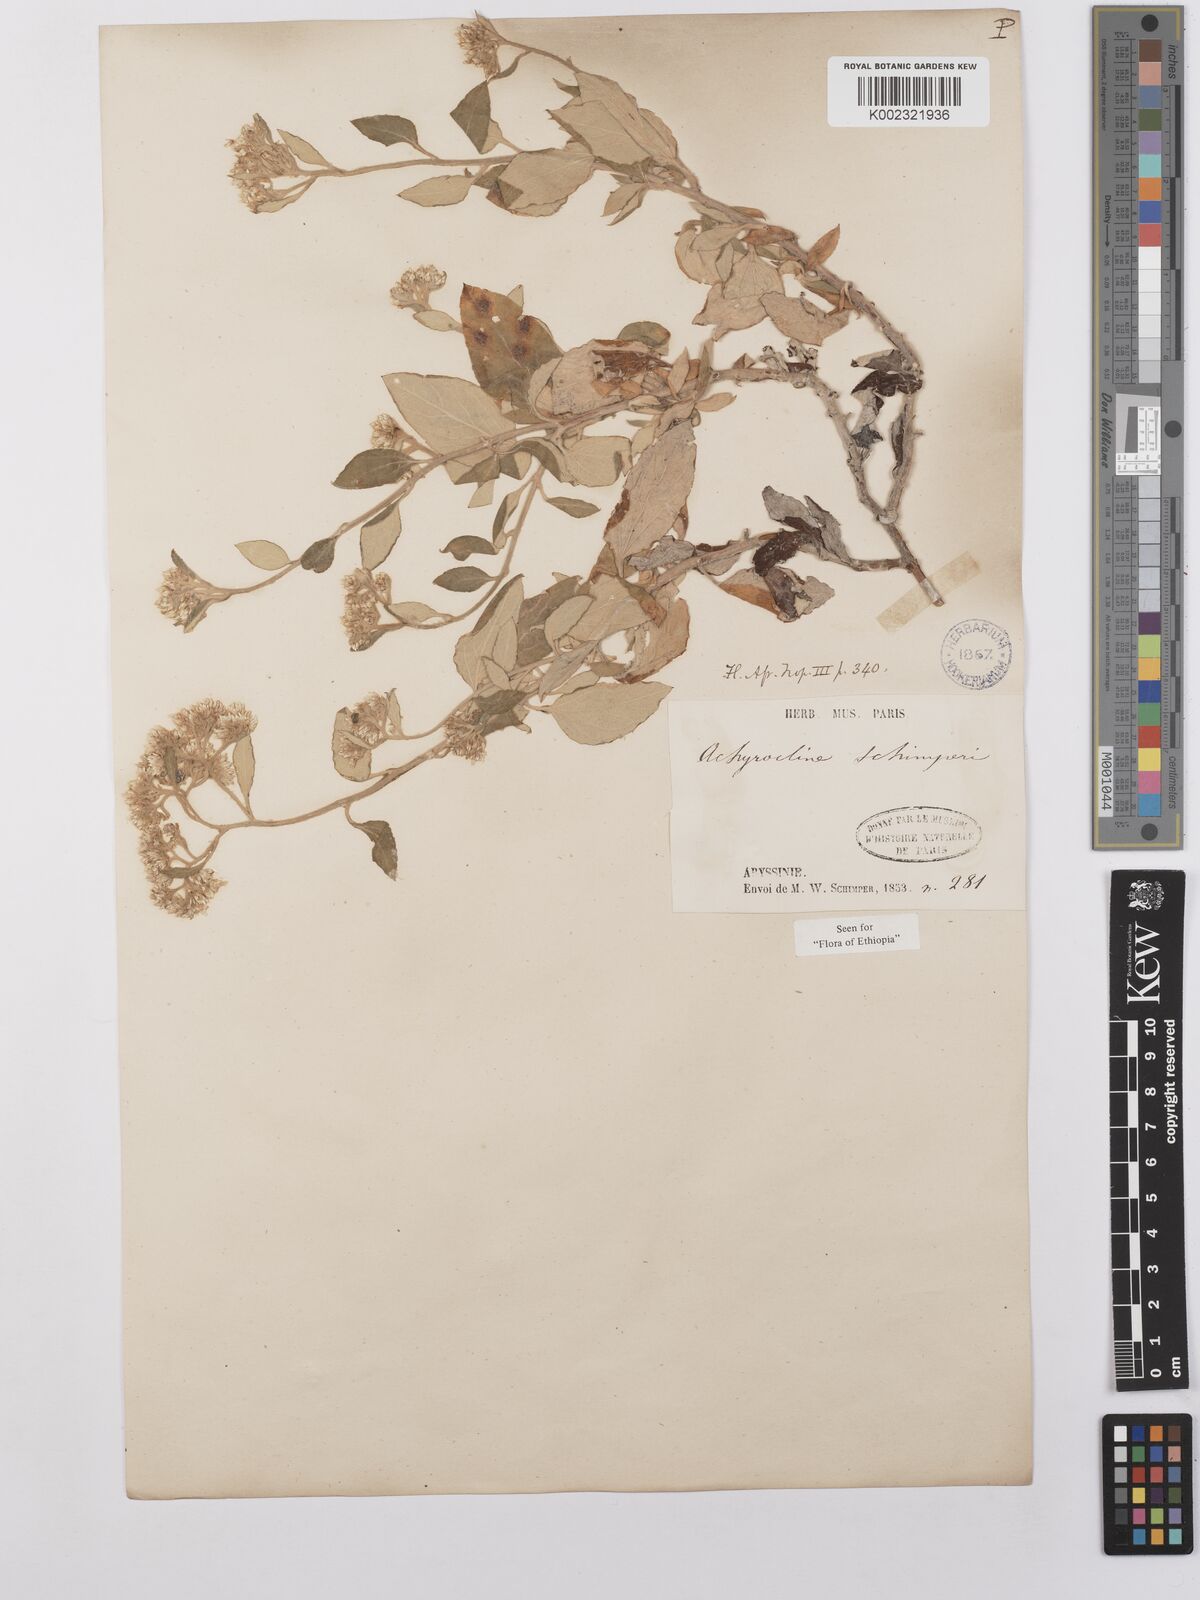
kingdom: Plantae
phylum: Tracheophyta
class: Magnoliopsida
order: Asterales
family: Asteraceae
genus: Helichrysum
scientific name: Helichrysum schimperi
